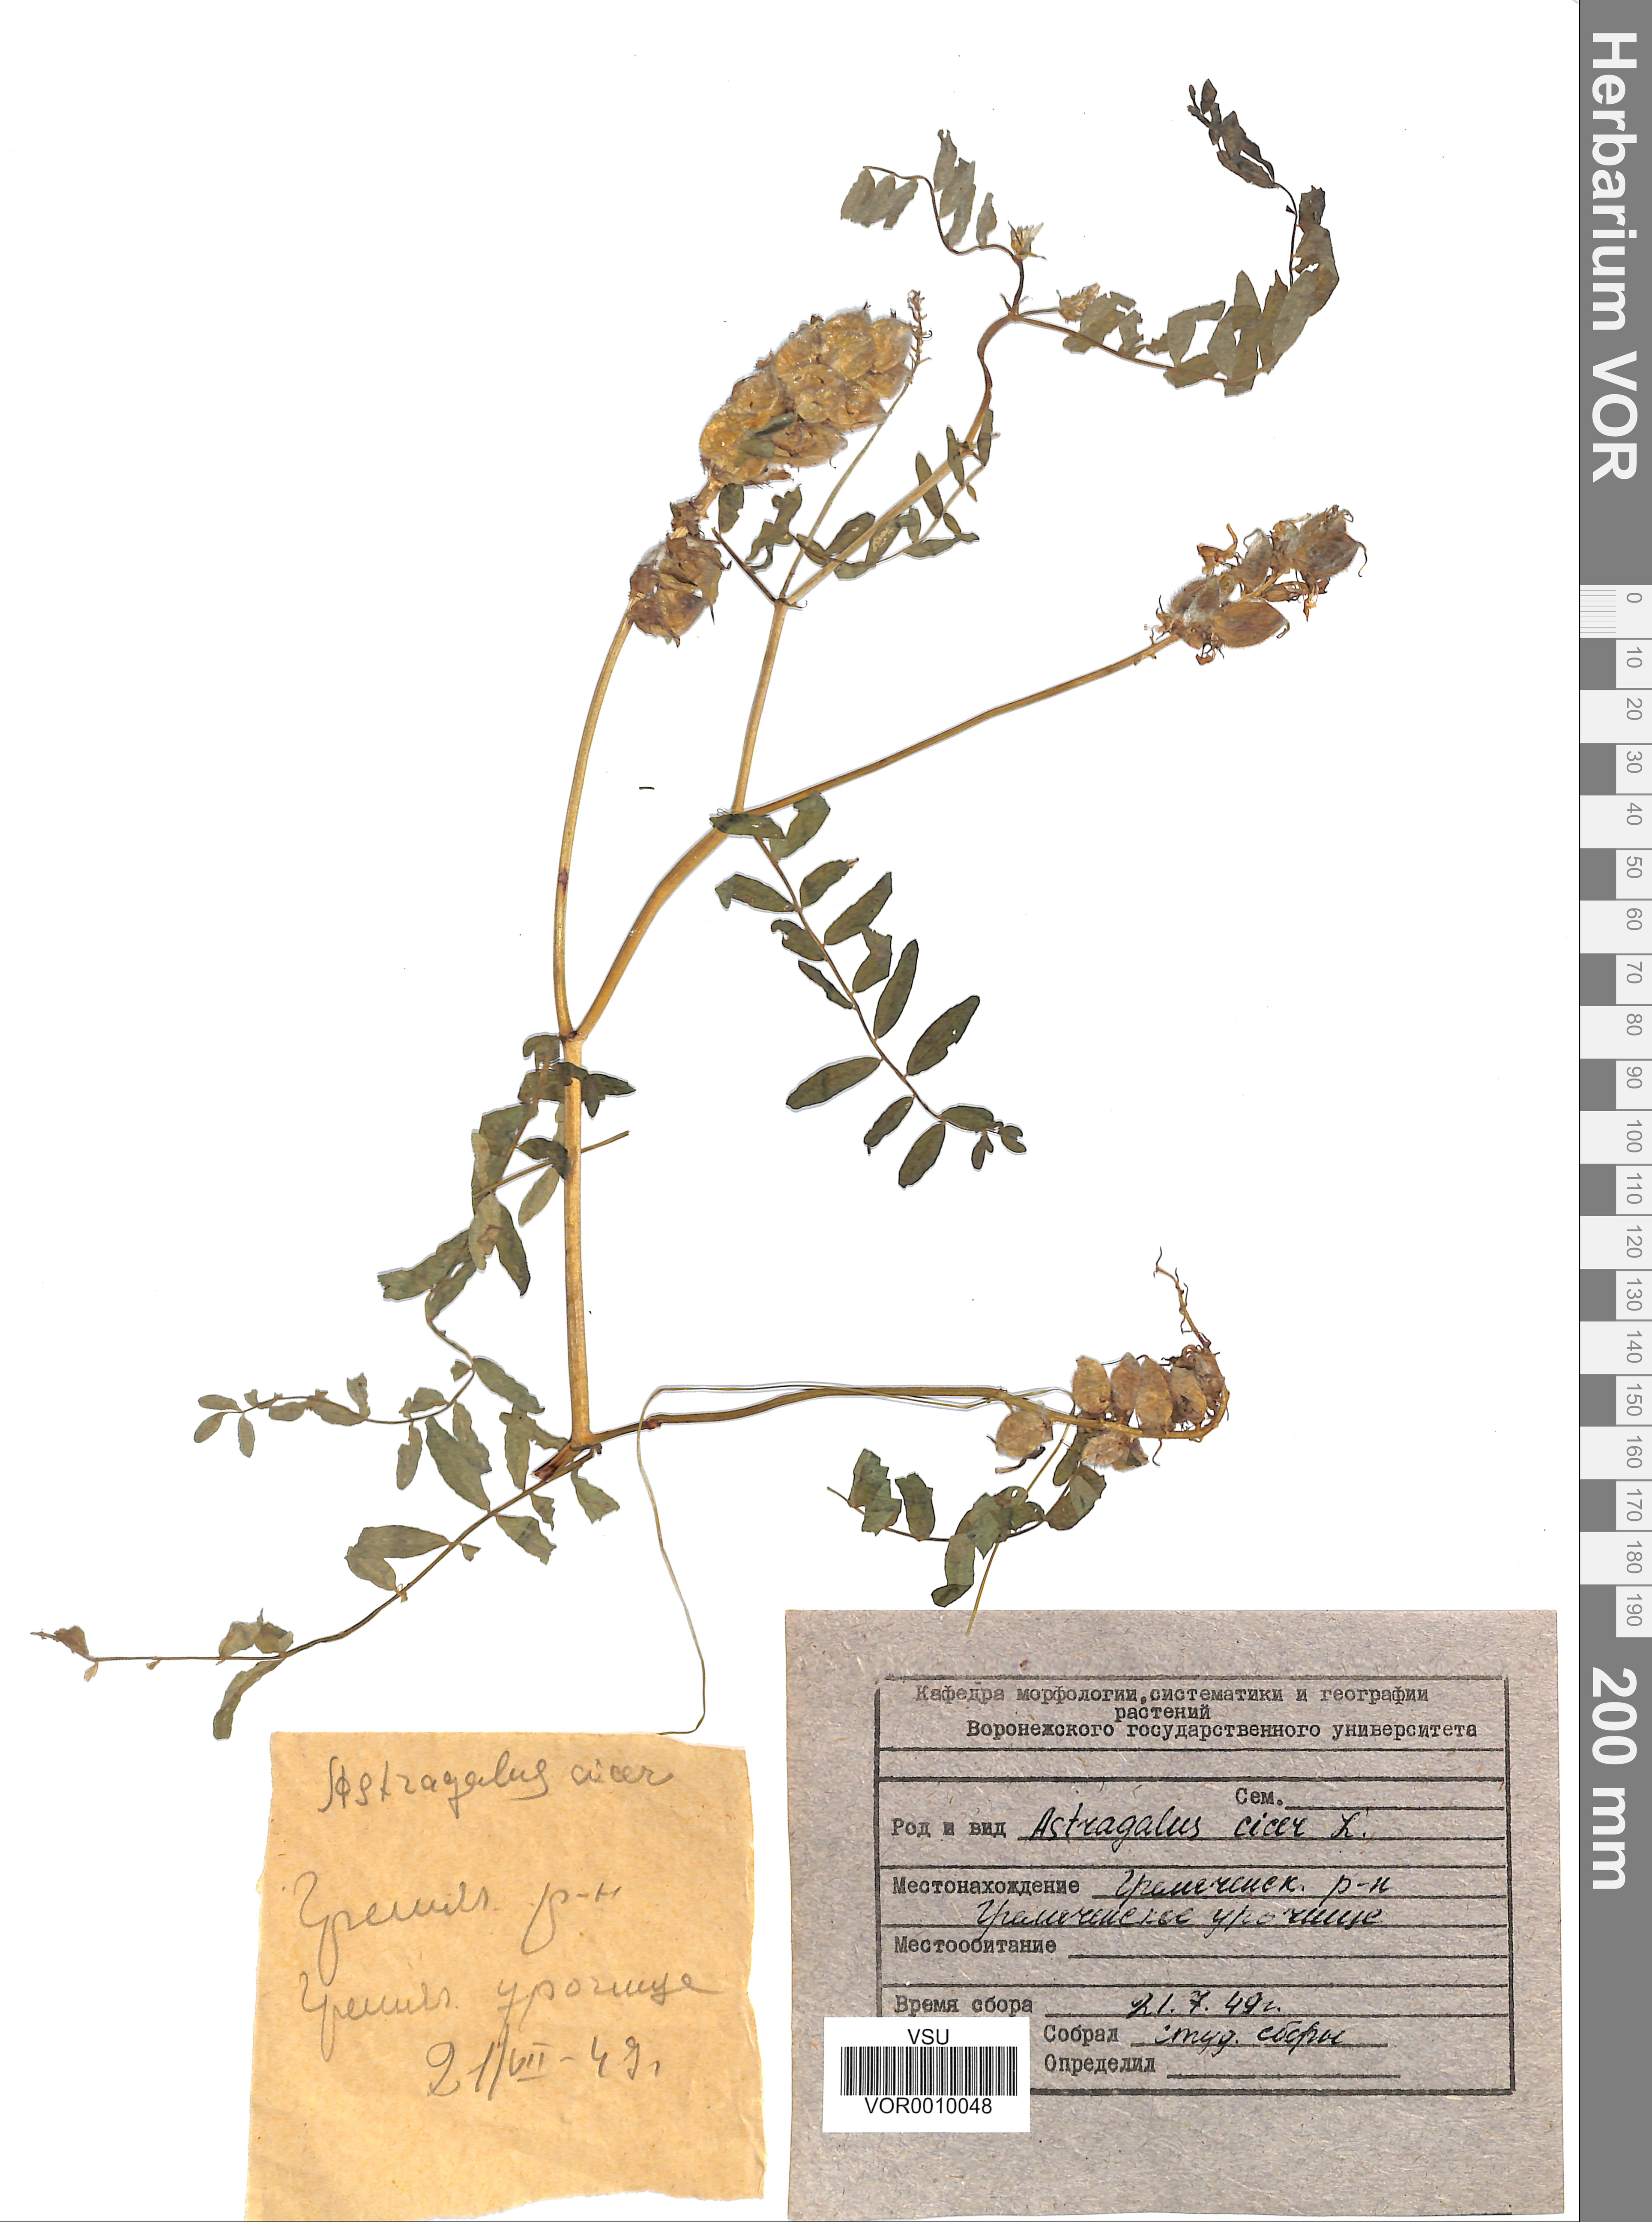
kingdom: Plantae
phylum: Tracheophyta
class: Magnoliopsida
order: Fabales
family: Fabaceae
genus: Astragalus
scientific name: Astragalus cicer
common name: Chick-pea milk-vetch
